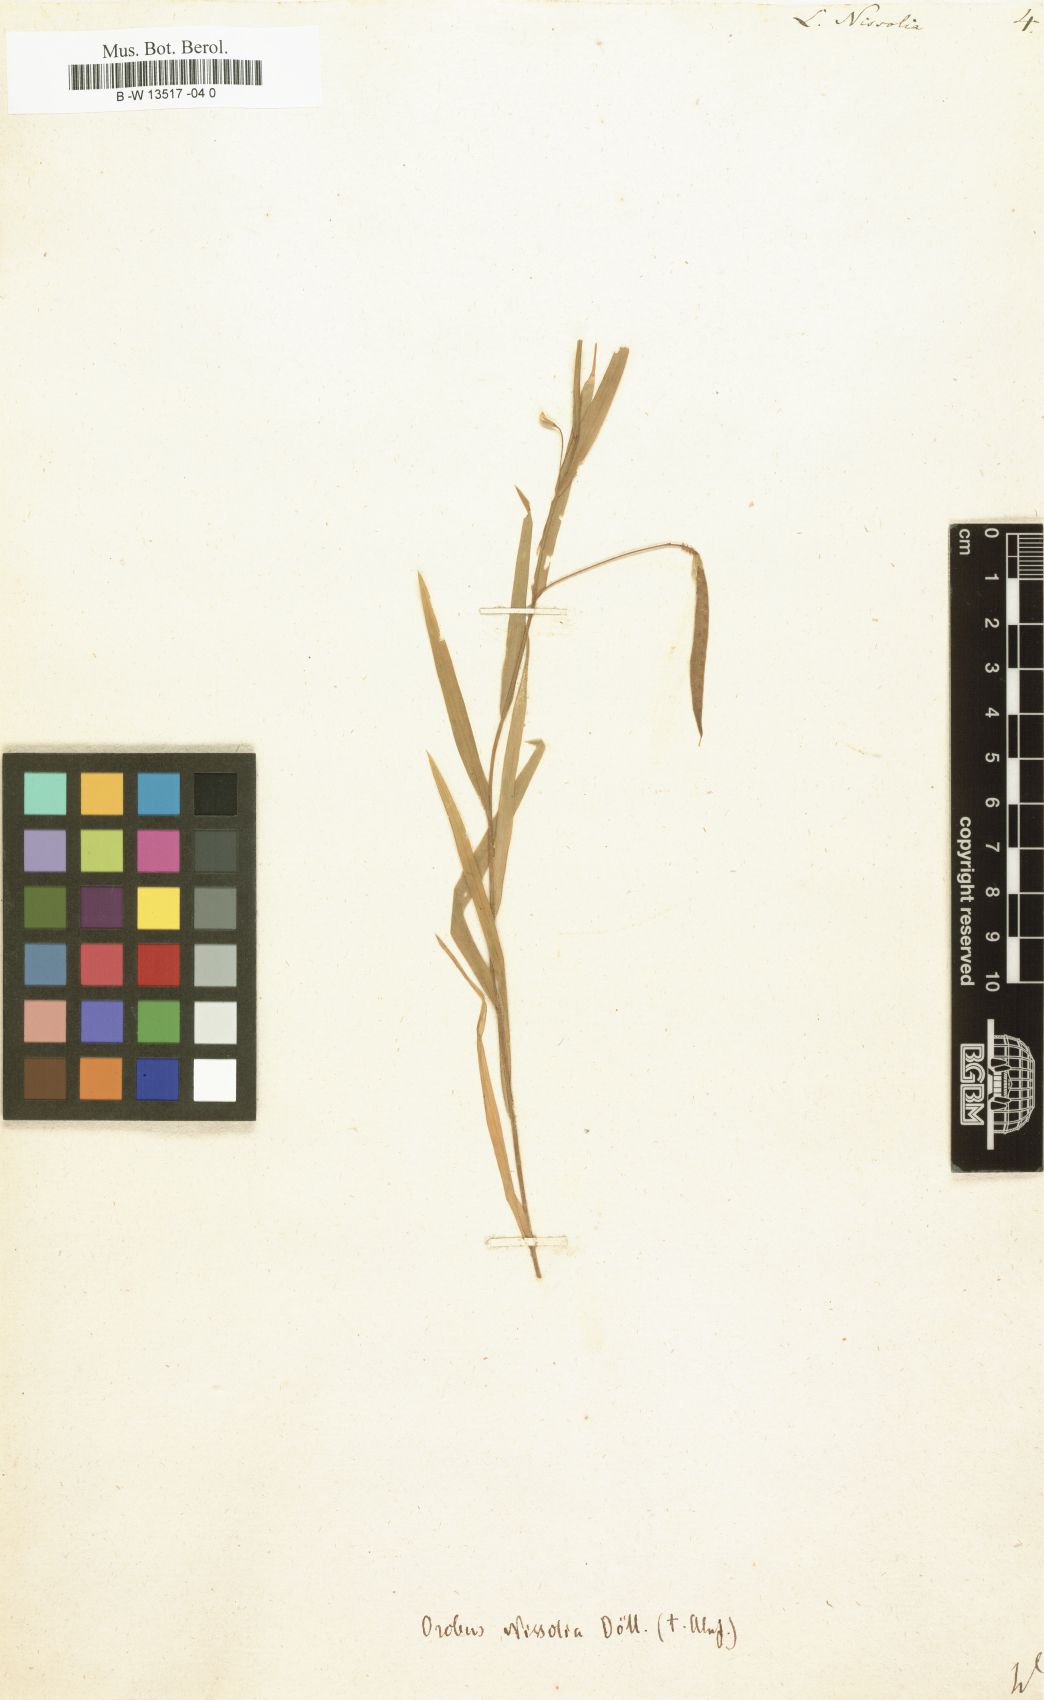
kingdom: Plantae
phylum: Tracheophyta
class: Magnoliopsida
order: Fabales
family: Fabaceae
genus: Lathyrus
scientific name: Lathyrus nissolia
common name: Grass vetchling
